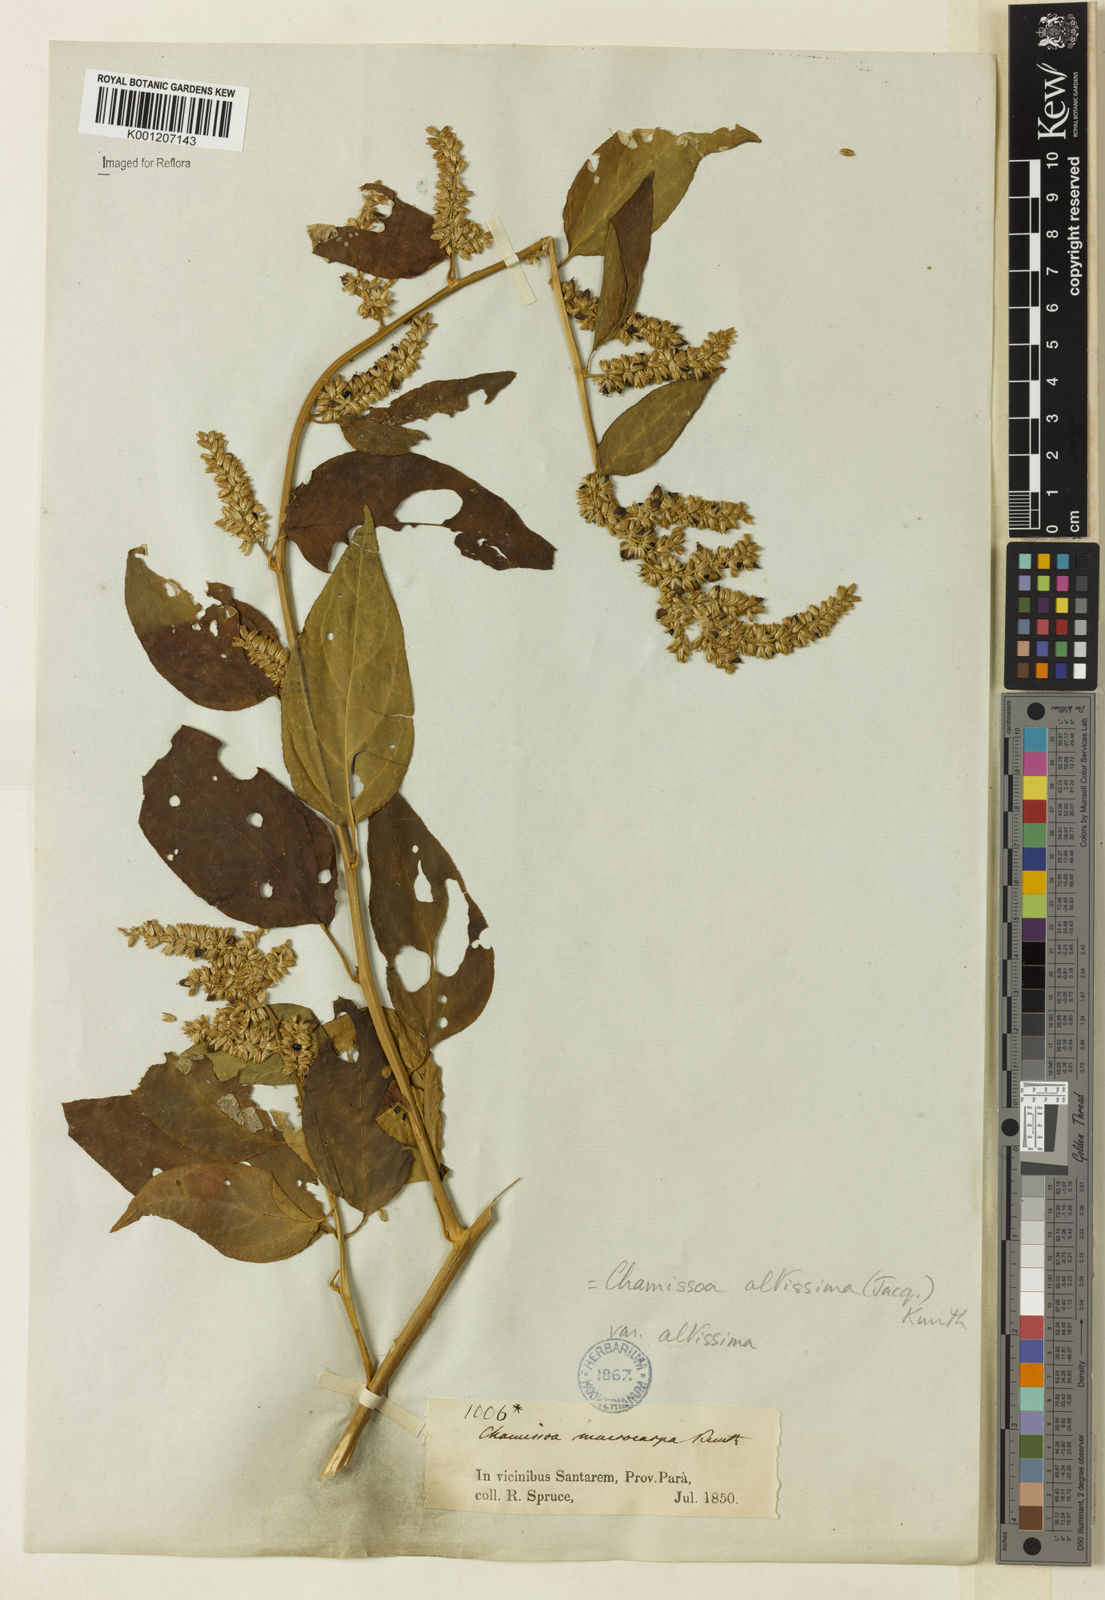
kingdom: Plantae
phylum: Tracheophyta
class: Magnoliopsida
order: Caryophyllales
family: Amaranthaceae
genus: Chamissoa
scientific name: Chamissoa altissima
